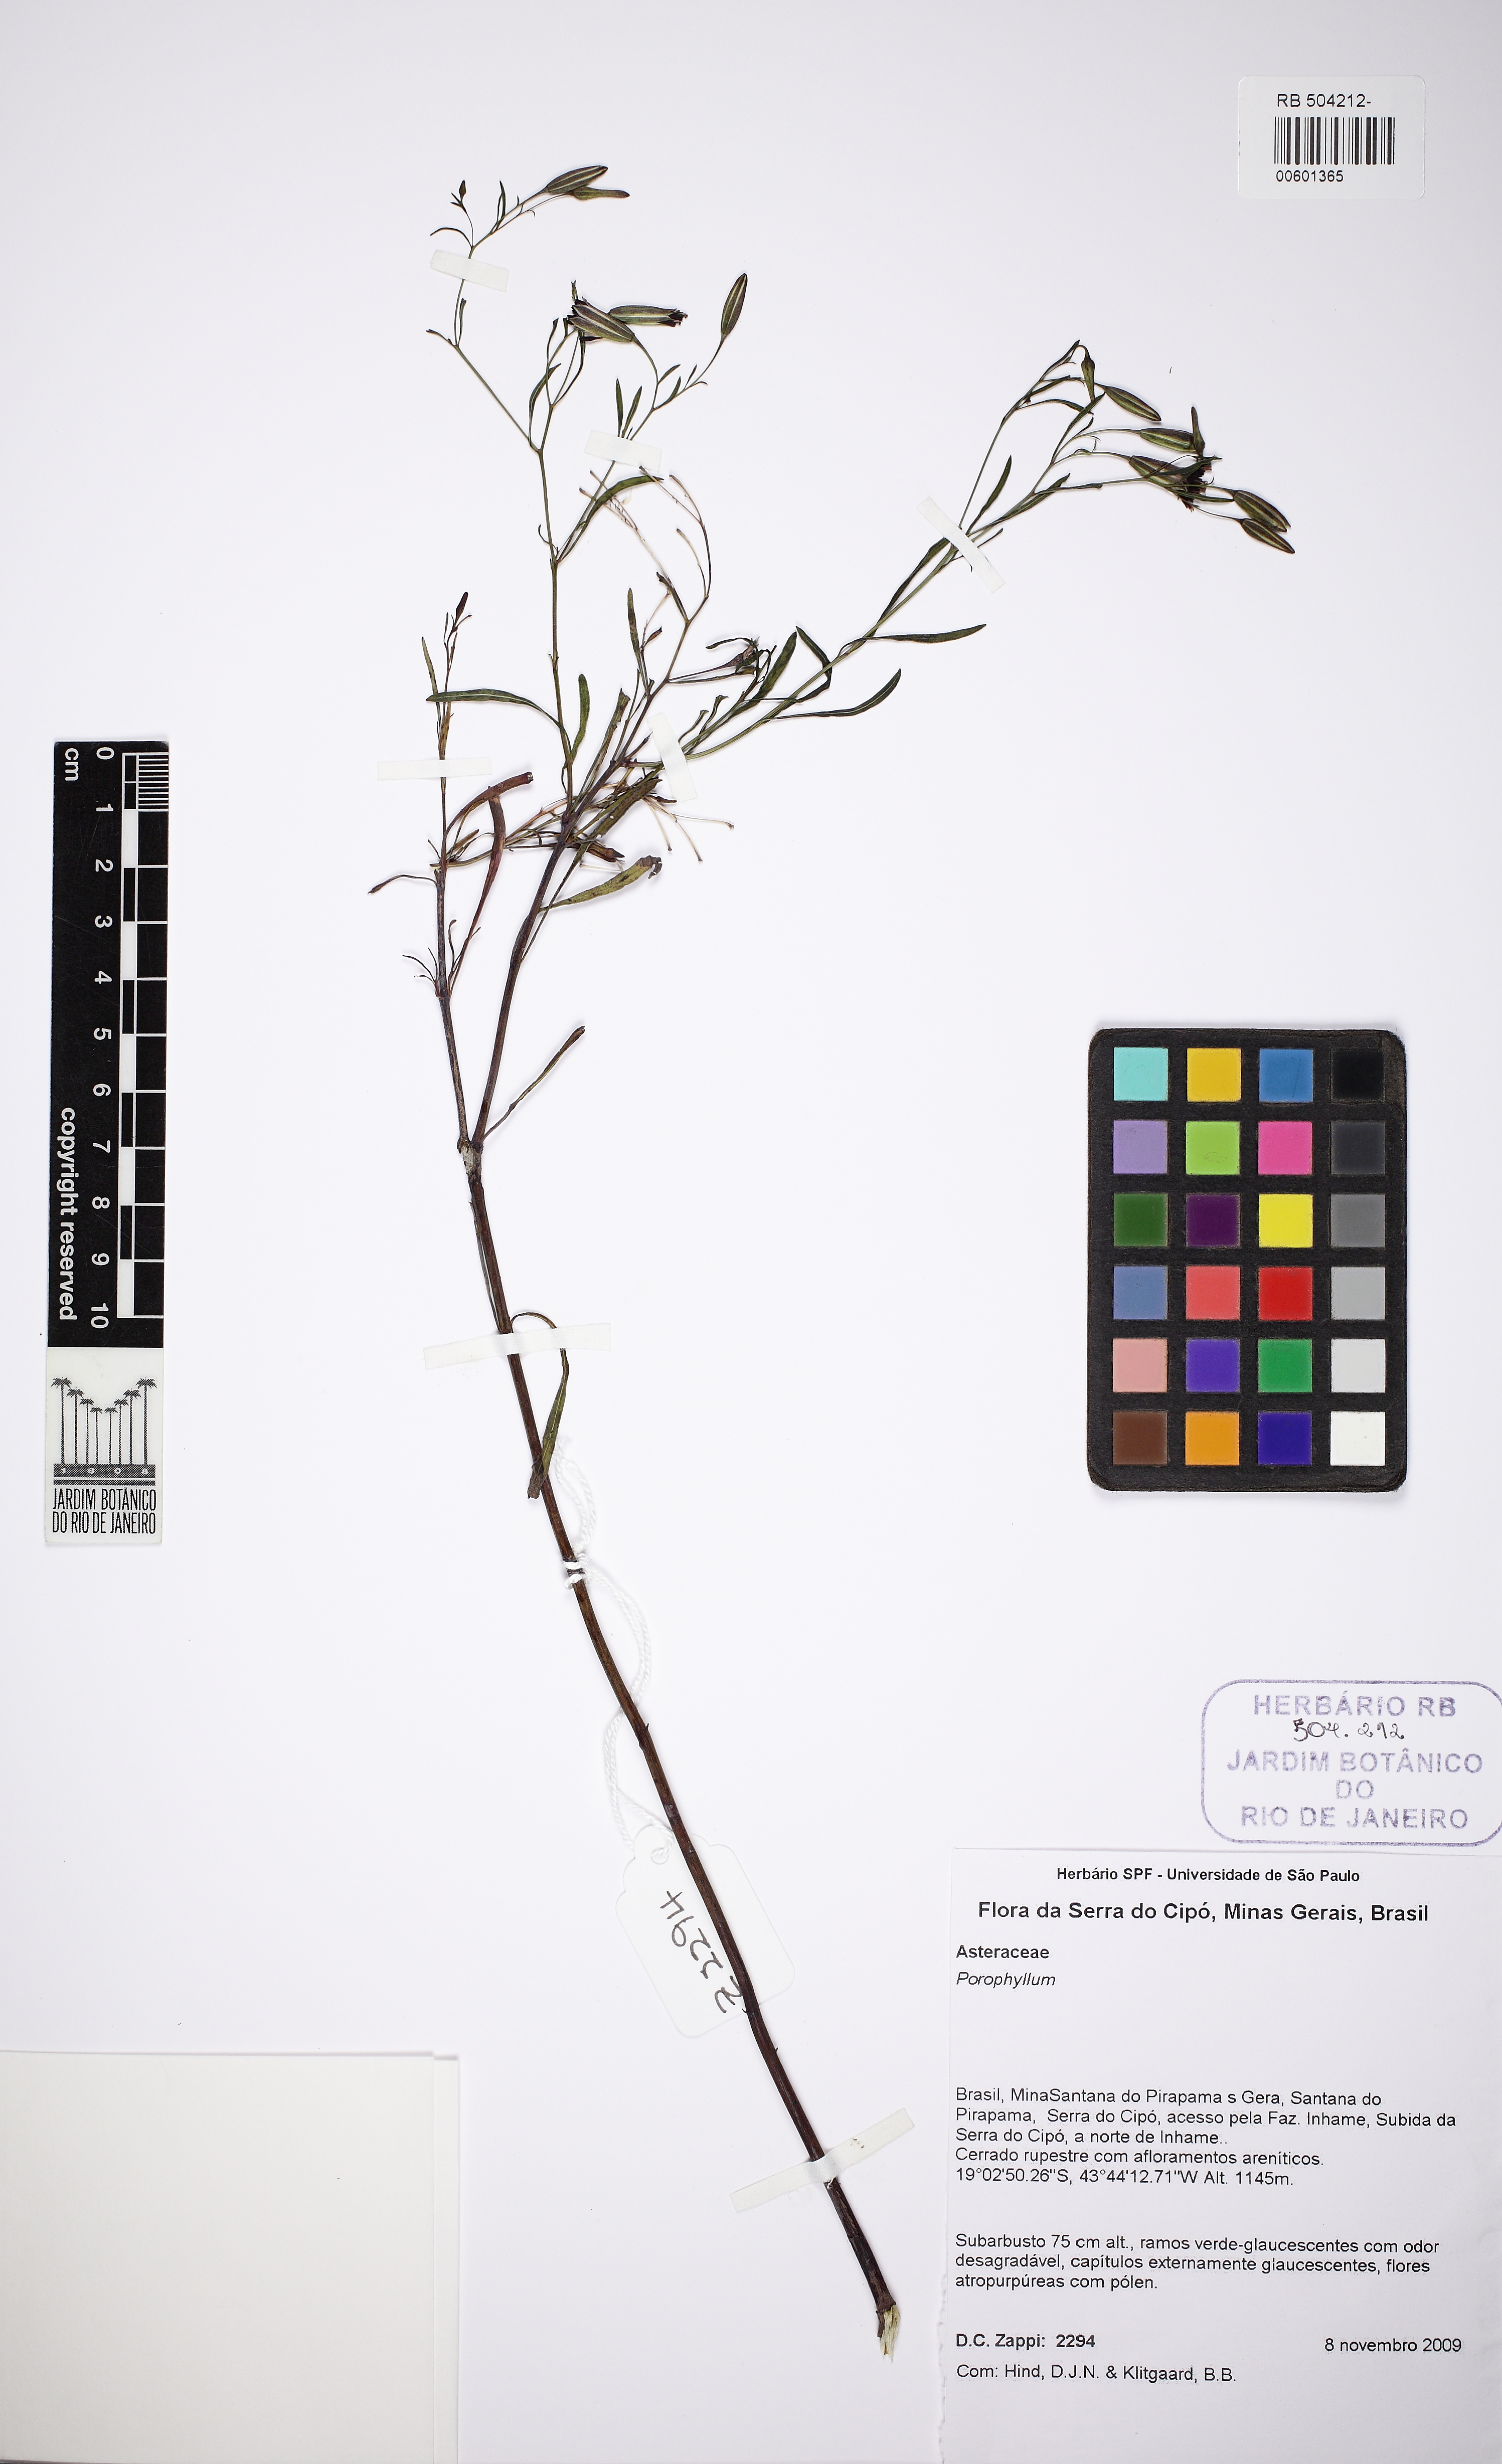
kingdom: Plantae
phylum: Tracheophyta
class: Magnoliopsida
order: Asterales
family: Asteraceae
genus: Porophyllum
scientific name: Porophyllum
